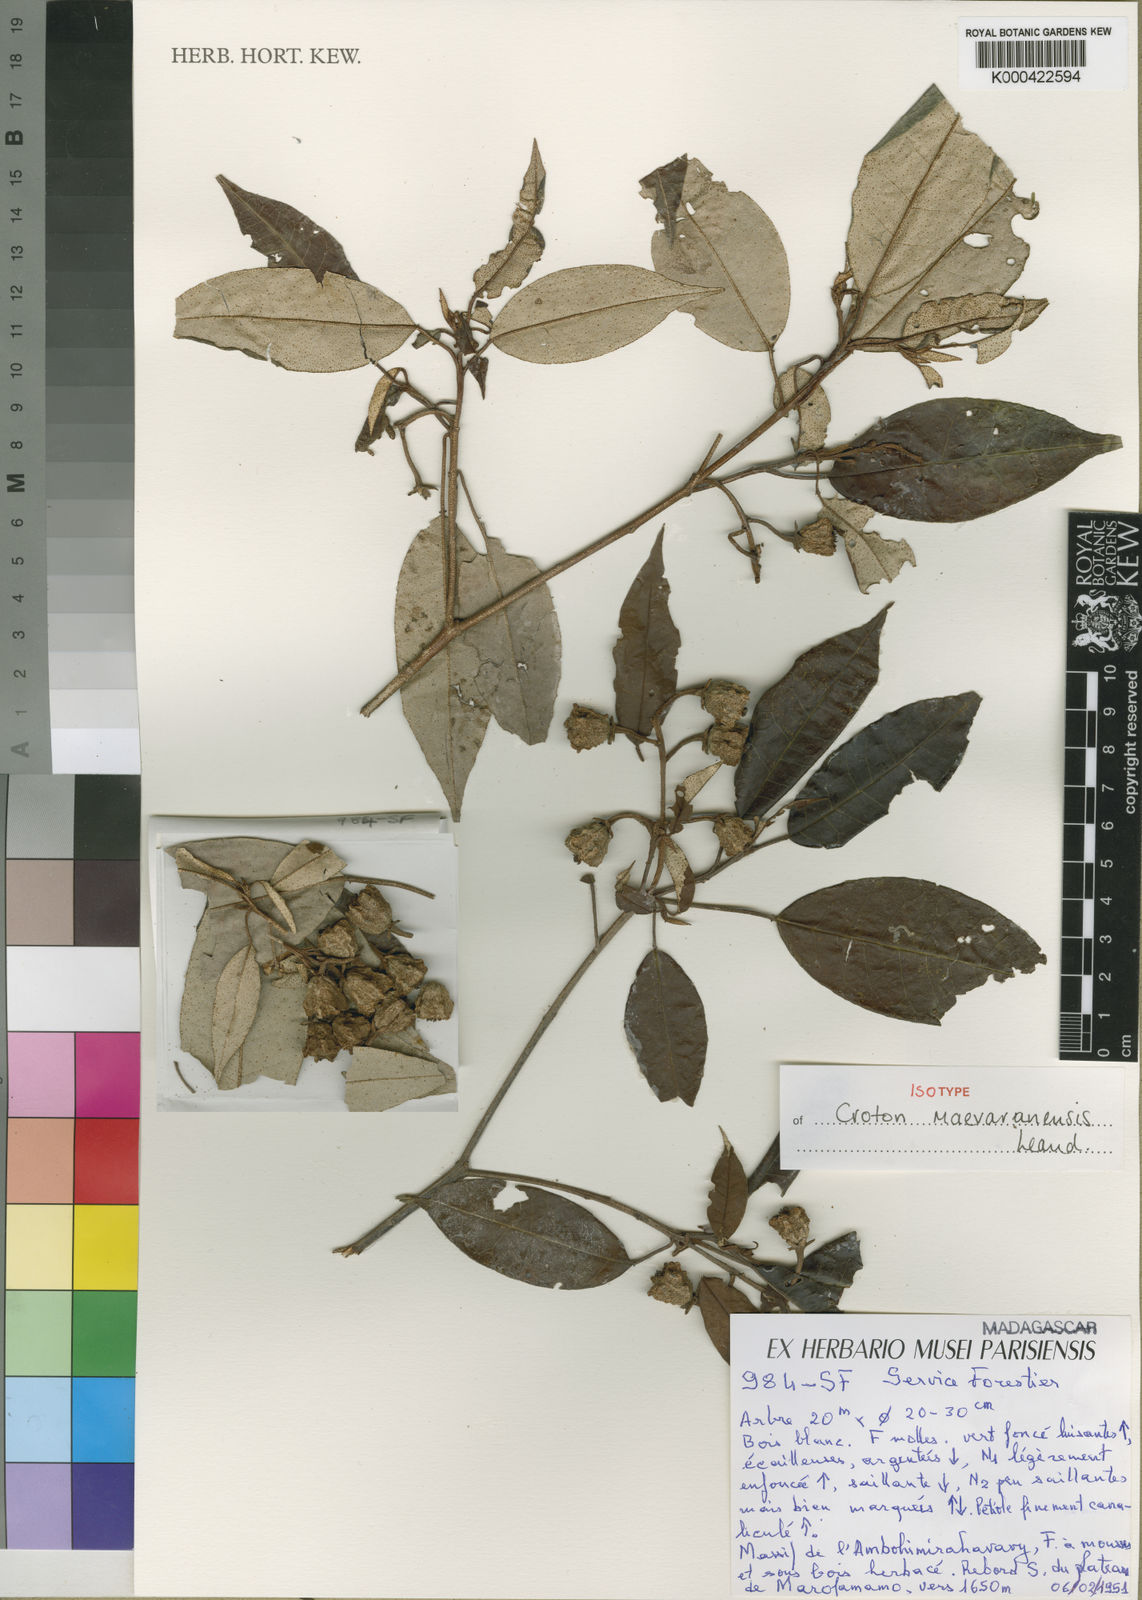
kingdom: Plantae
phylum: Tracheophyta
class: Magnoliopsida
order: Malpighiales
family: Euphorbiaceae
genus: Croton
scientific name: Croton maevaranensis
